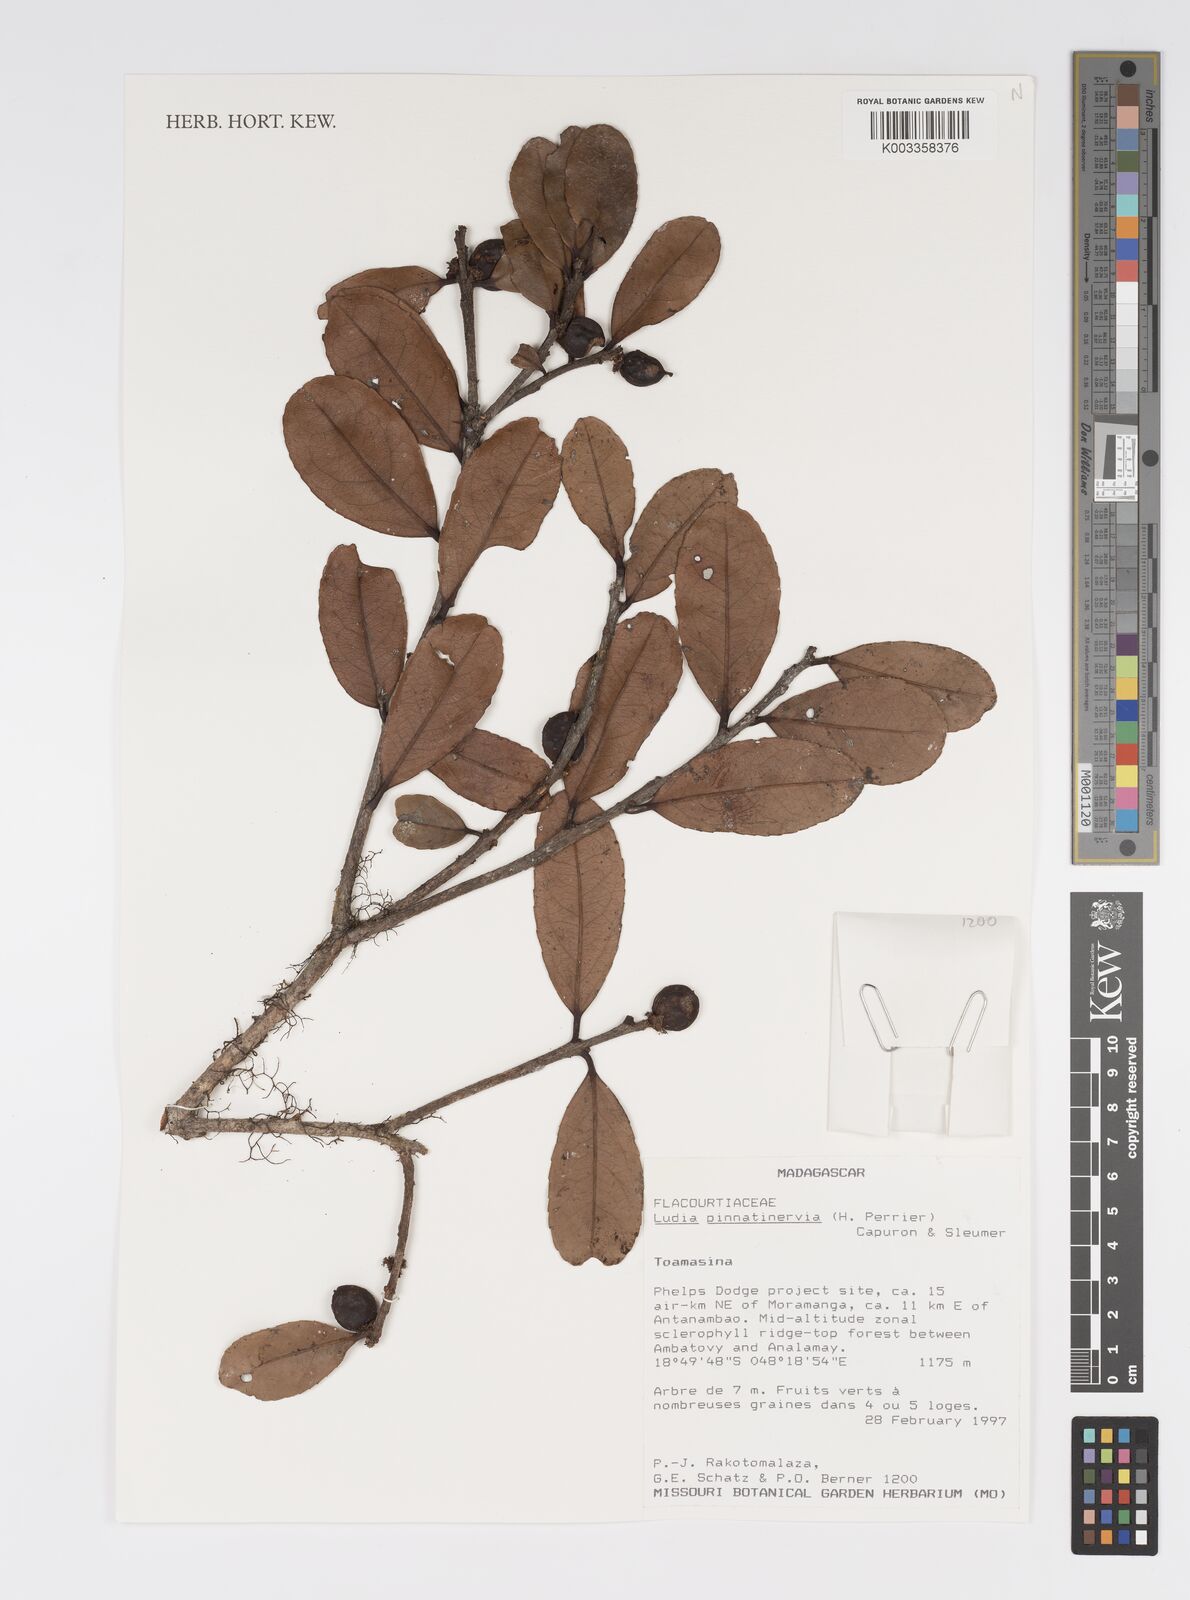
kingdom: Plantae
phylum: Tracheophyta
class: Magnoliopsida
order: Malpighiales
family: Salicaceae
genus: Ludia
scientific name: Ludia pinnatinervia
